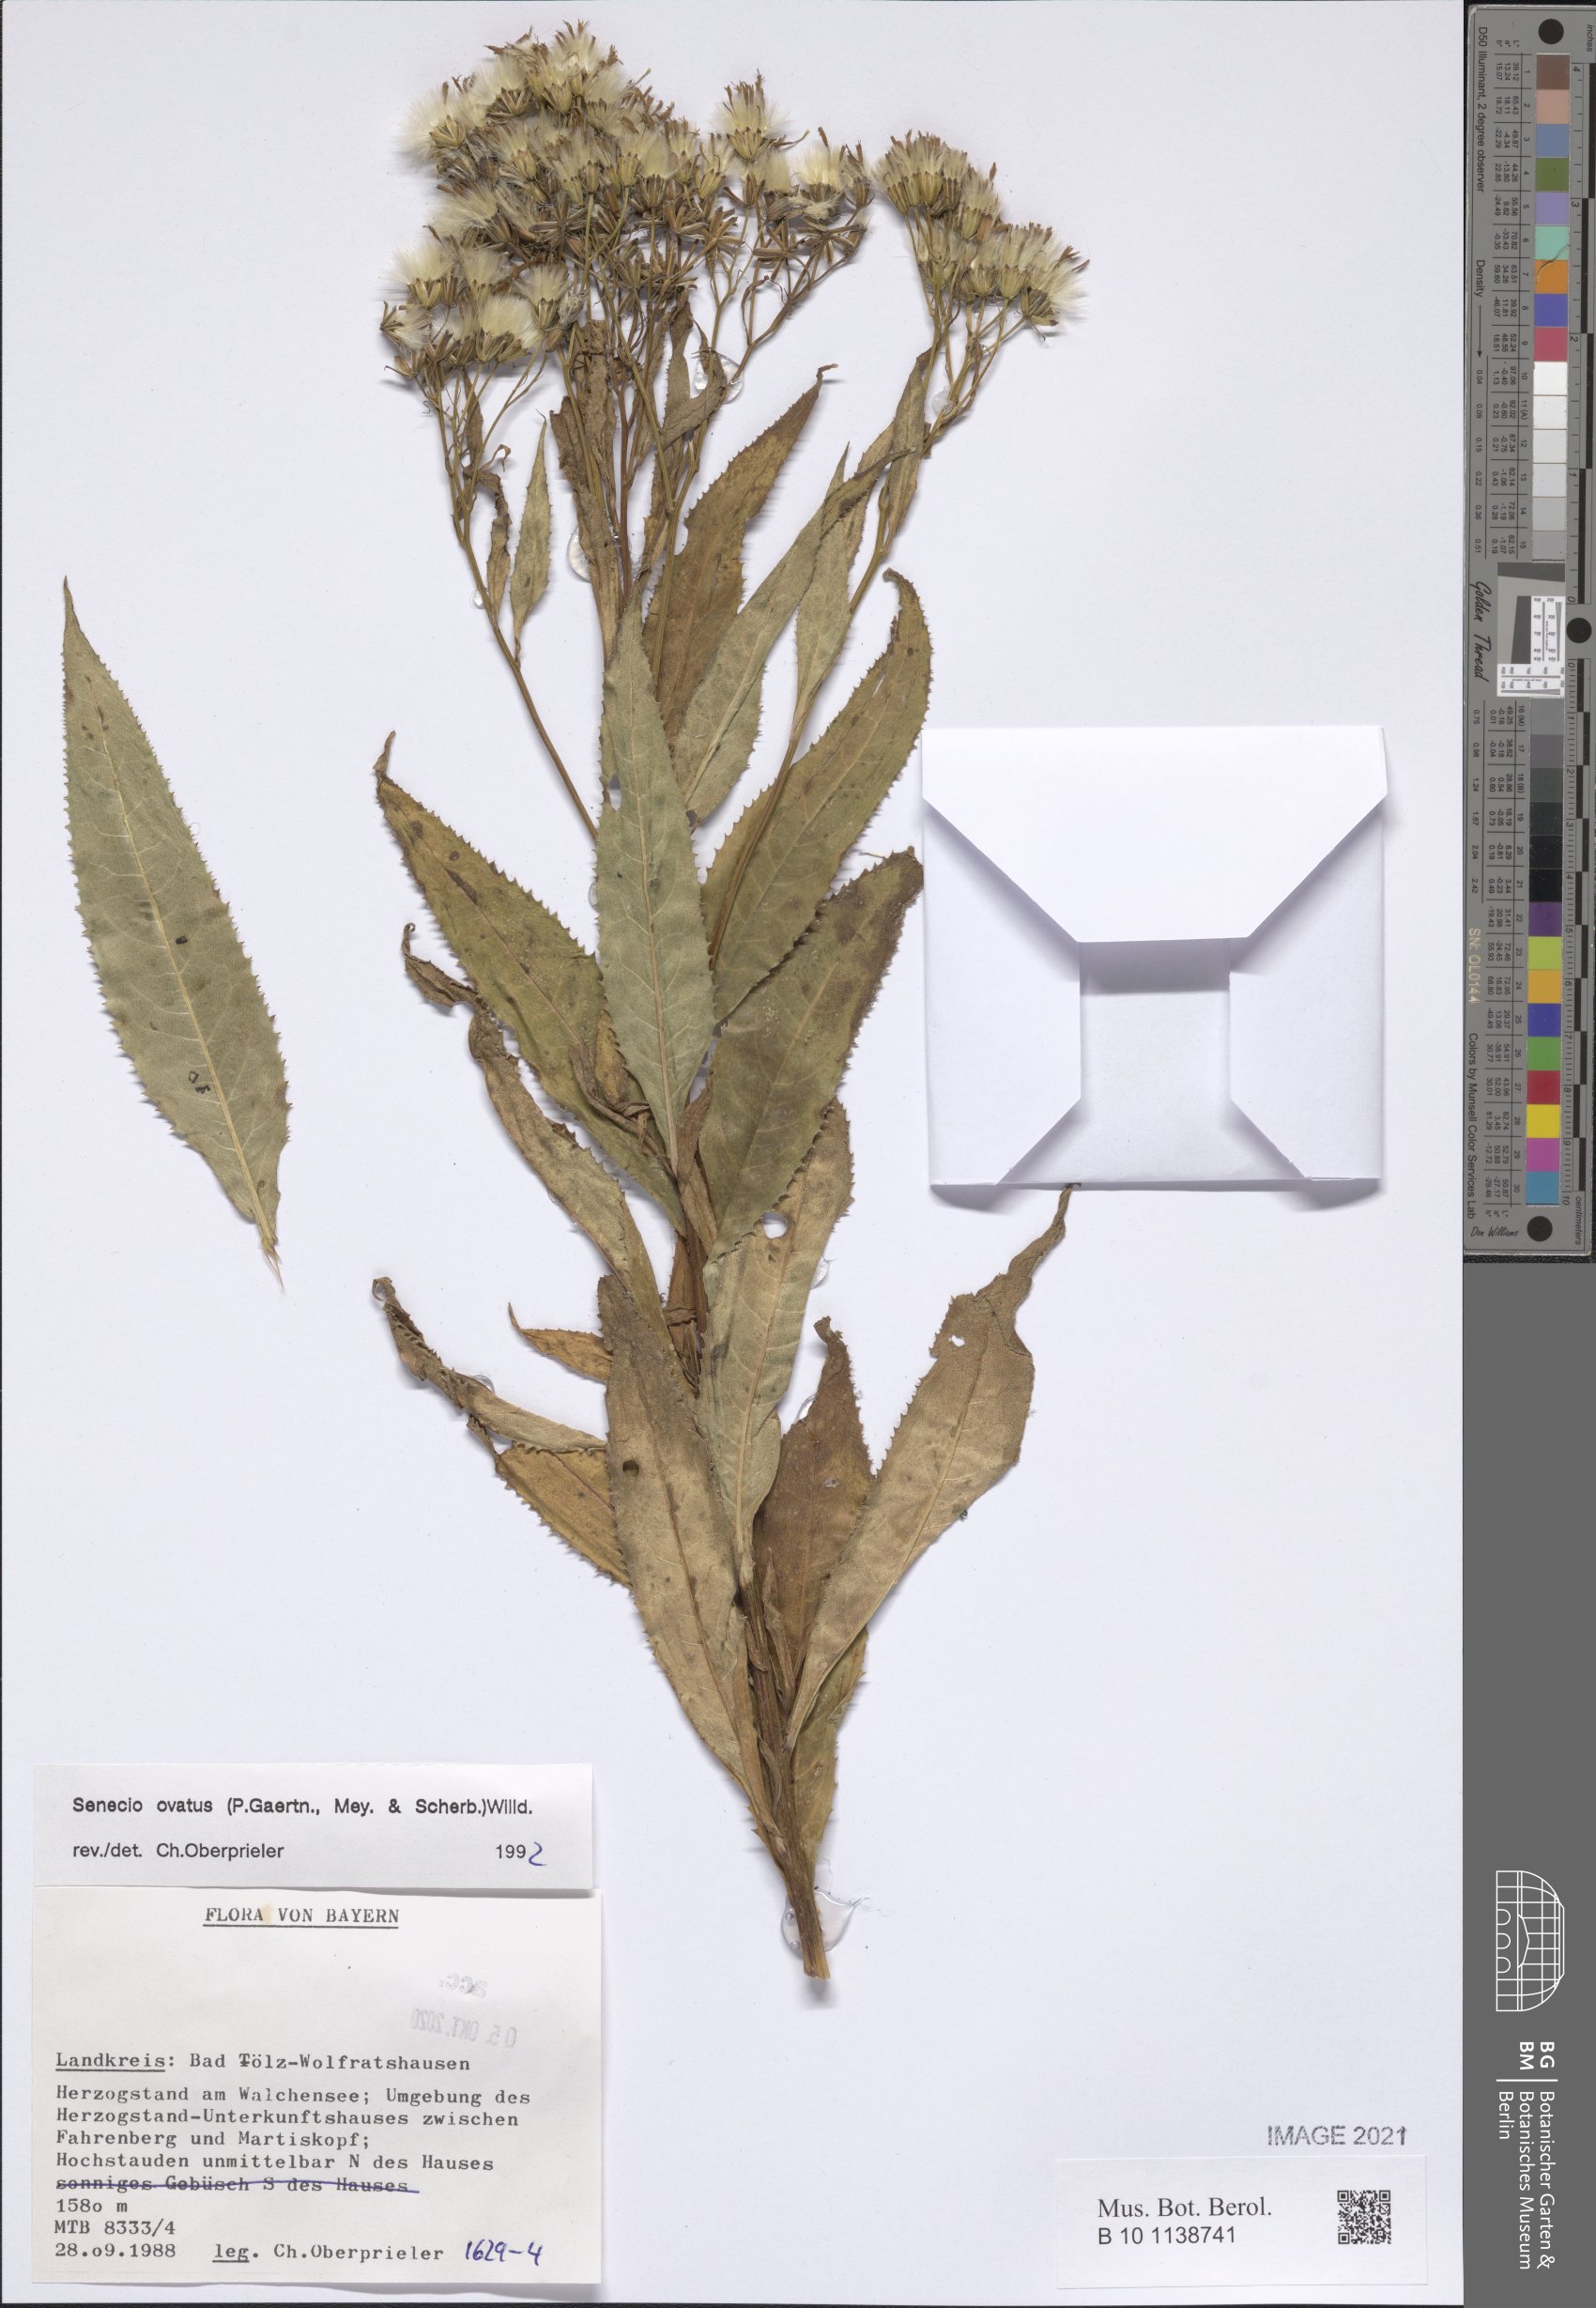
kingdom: Plantae
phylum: Tracheophyta
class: Magnoliopsida
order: Asterales
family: Asteraceae
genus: Senecio
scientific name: Senecio ovatus
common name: Wood ragwort
